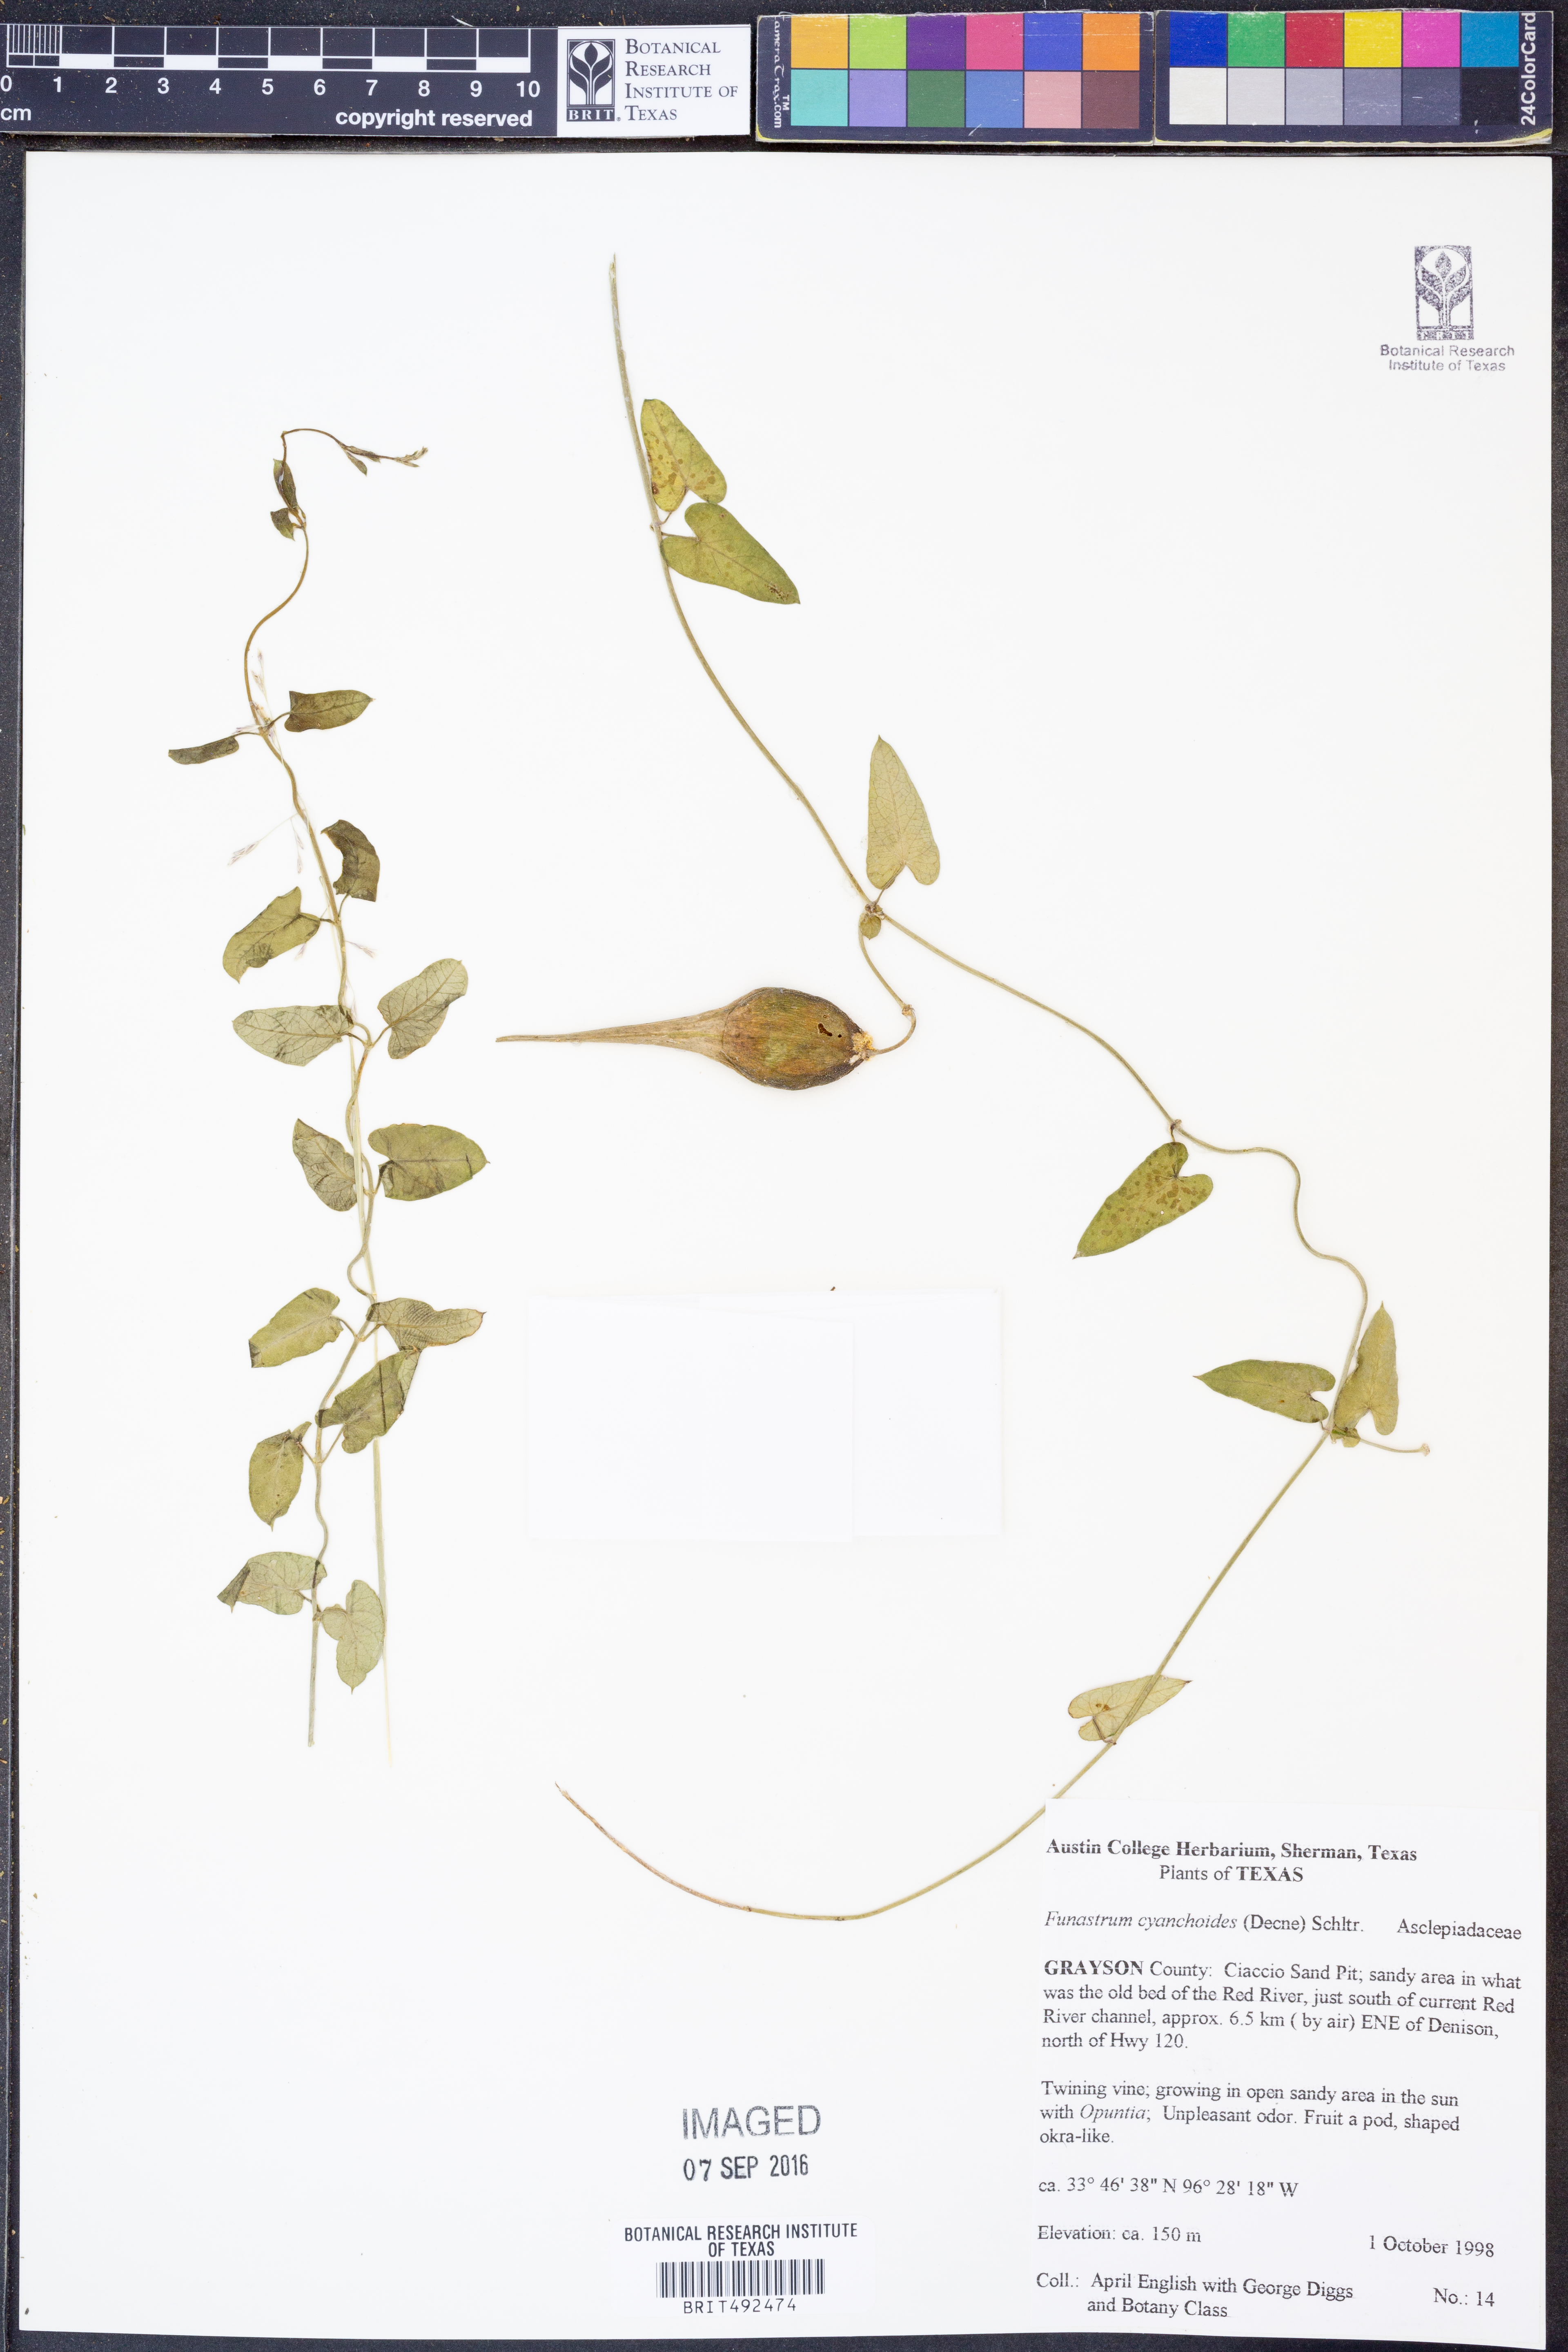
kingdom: Plantae
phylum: Tracheophyta
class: Magnoliopsida
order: Gentianales
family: Apocynaceae
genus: Funastrum
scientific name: Funastrum cynanchoides
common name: Climbing-milkweed
